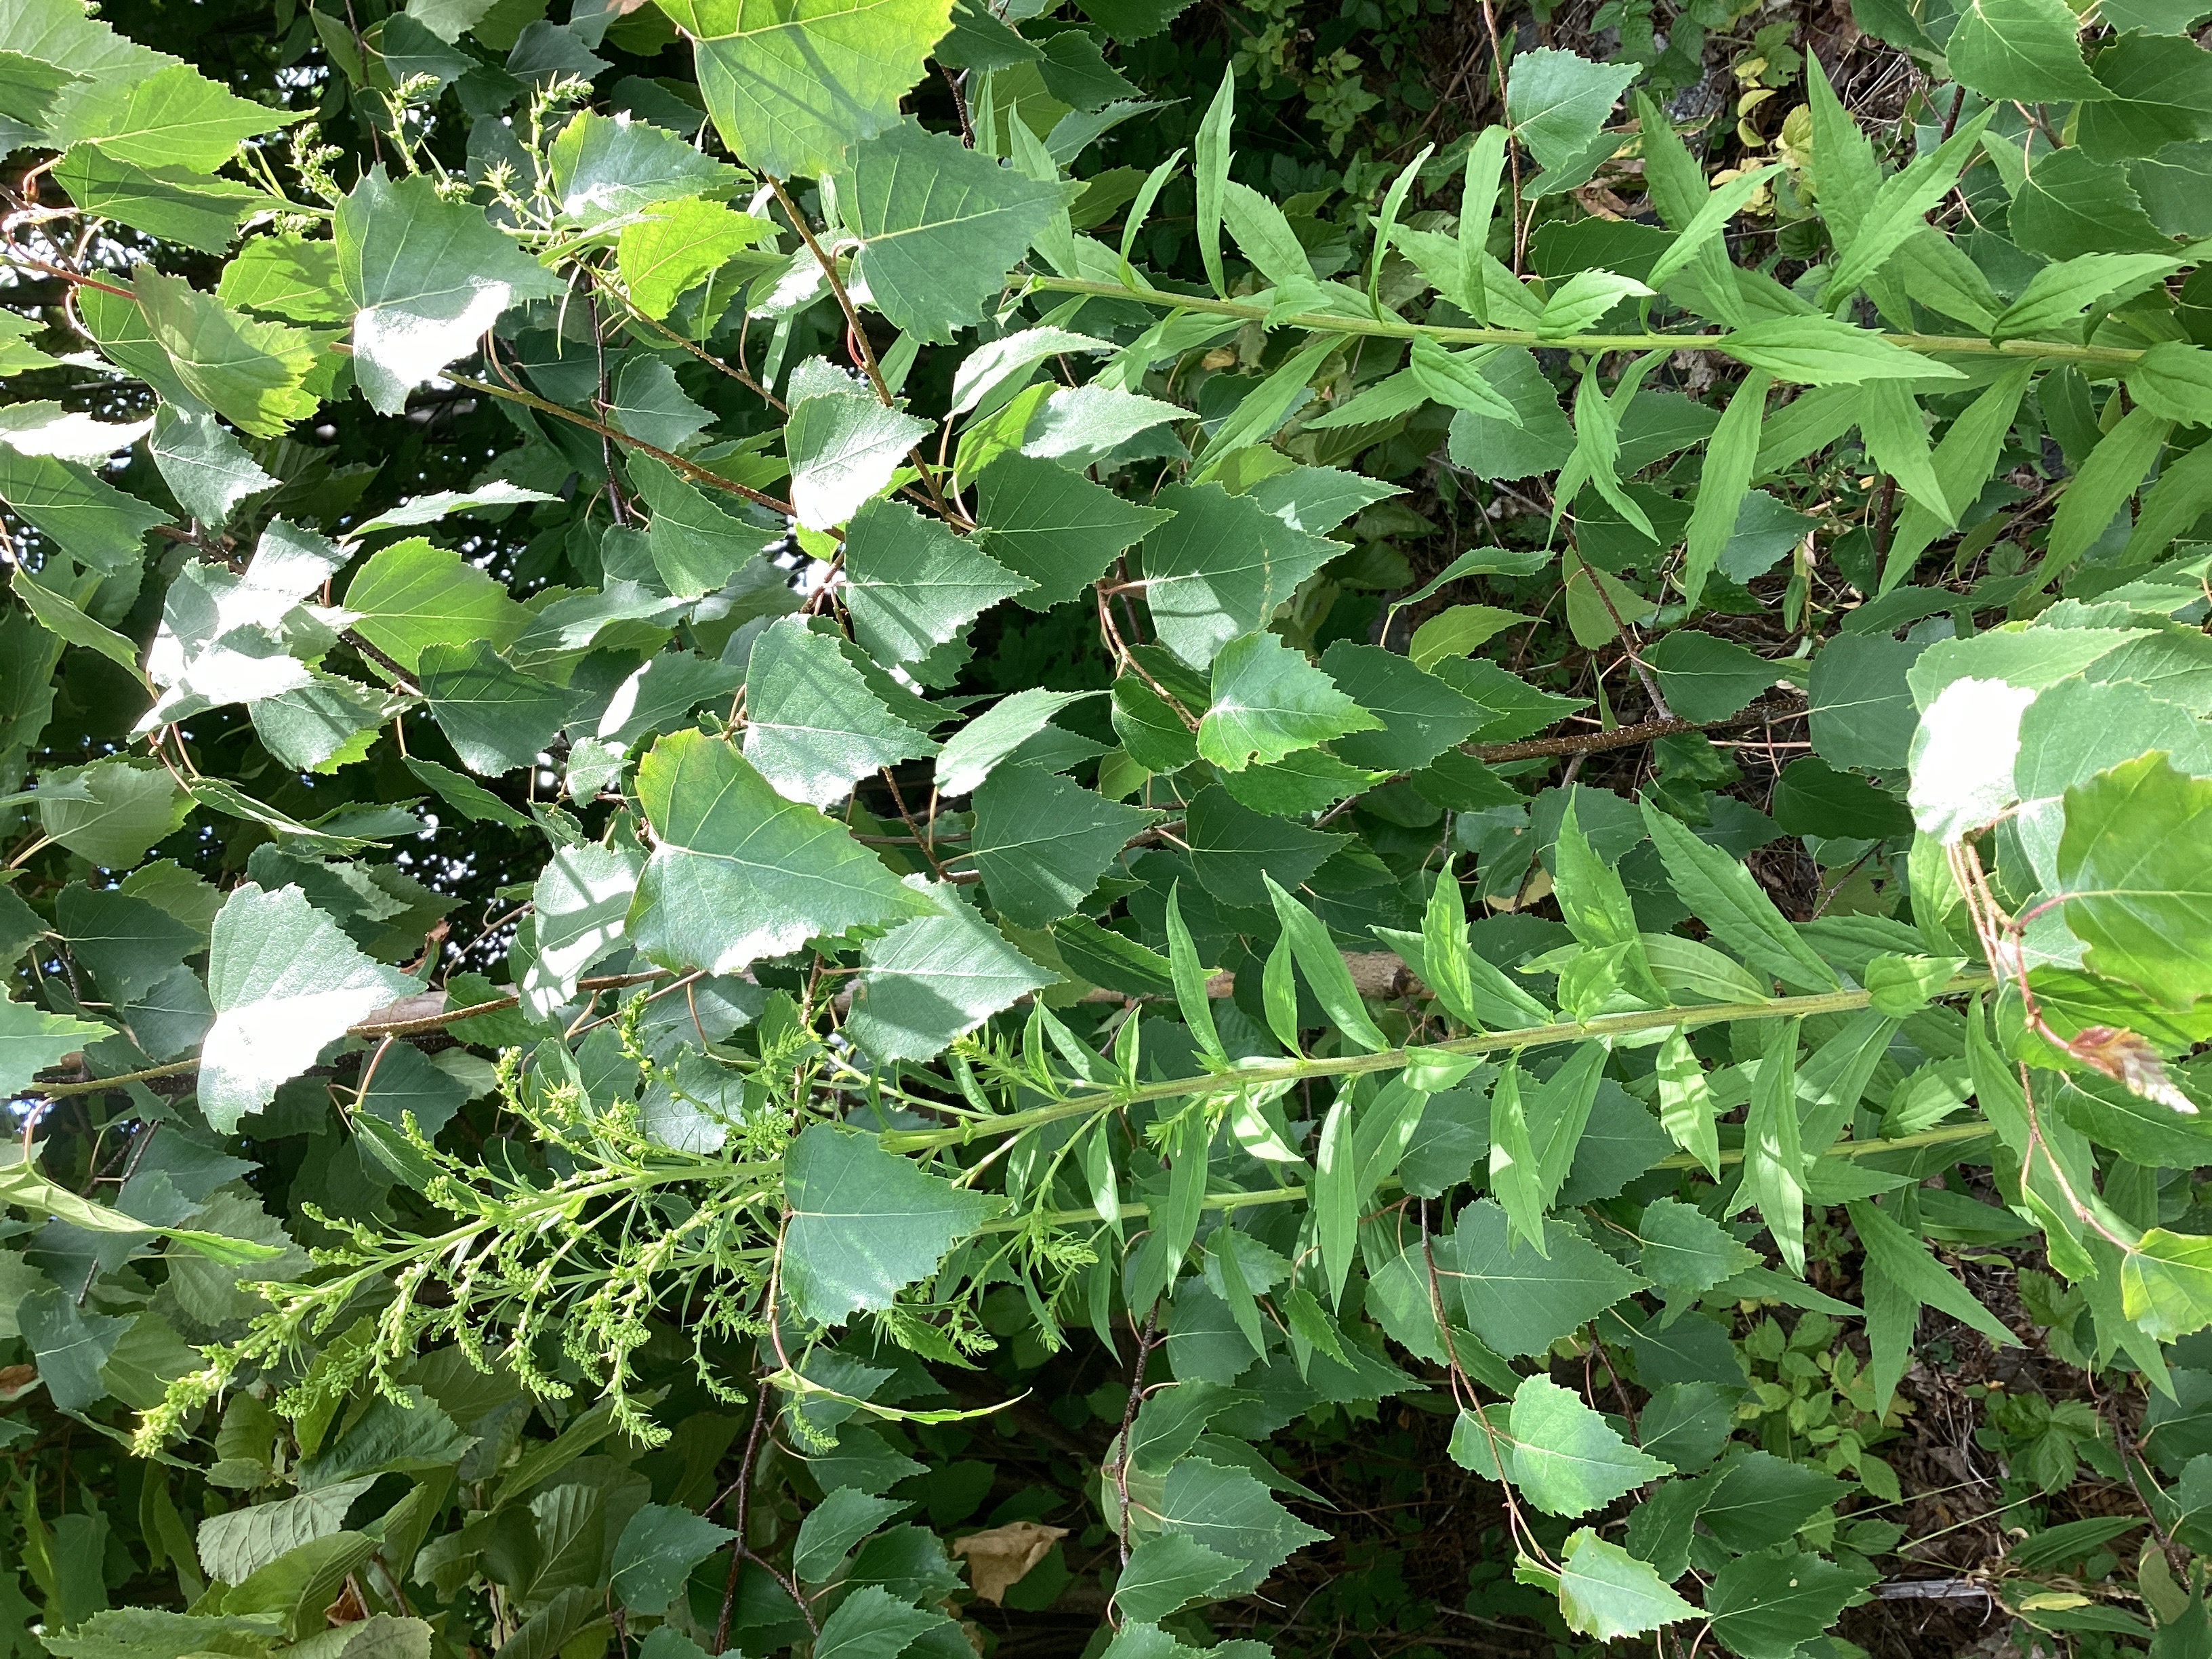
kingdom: Plantae
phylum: Tracheophyta
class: Magnoliopsida
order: Asterales
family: Asteraceae
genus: Solidago
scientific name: Solidago canadensis
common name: kanadagullris
